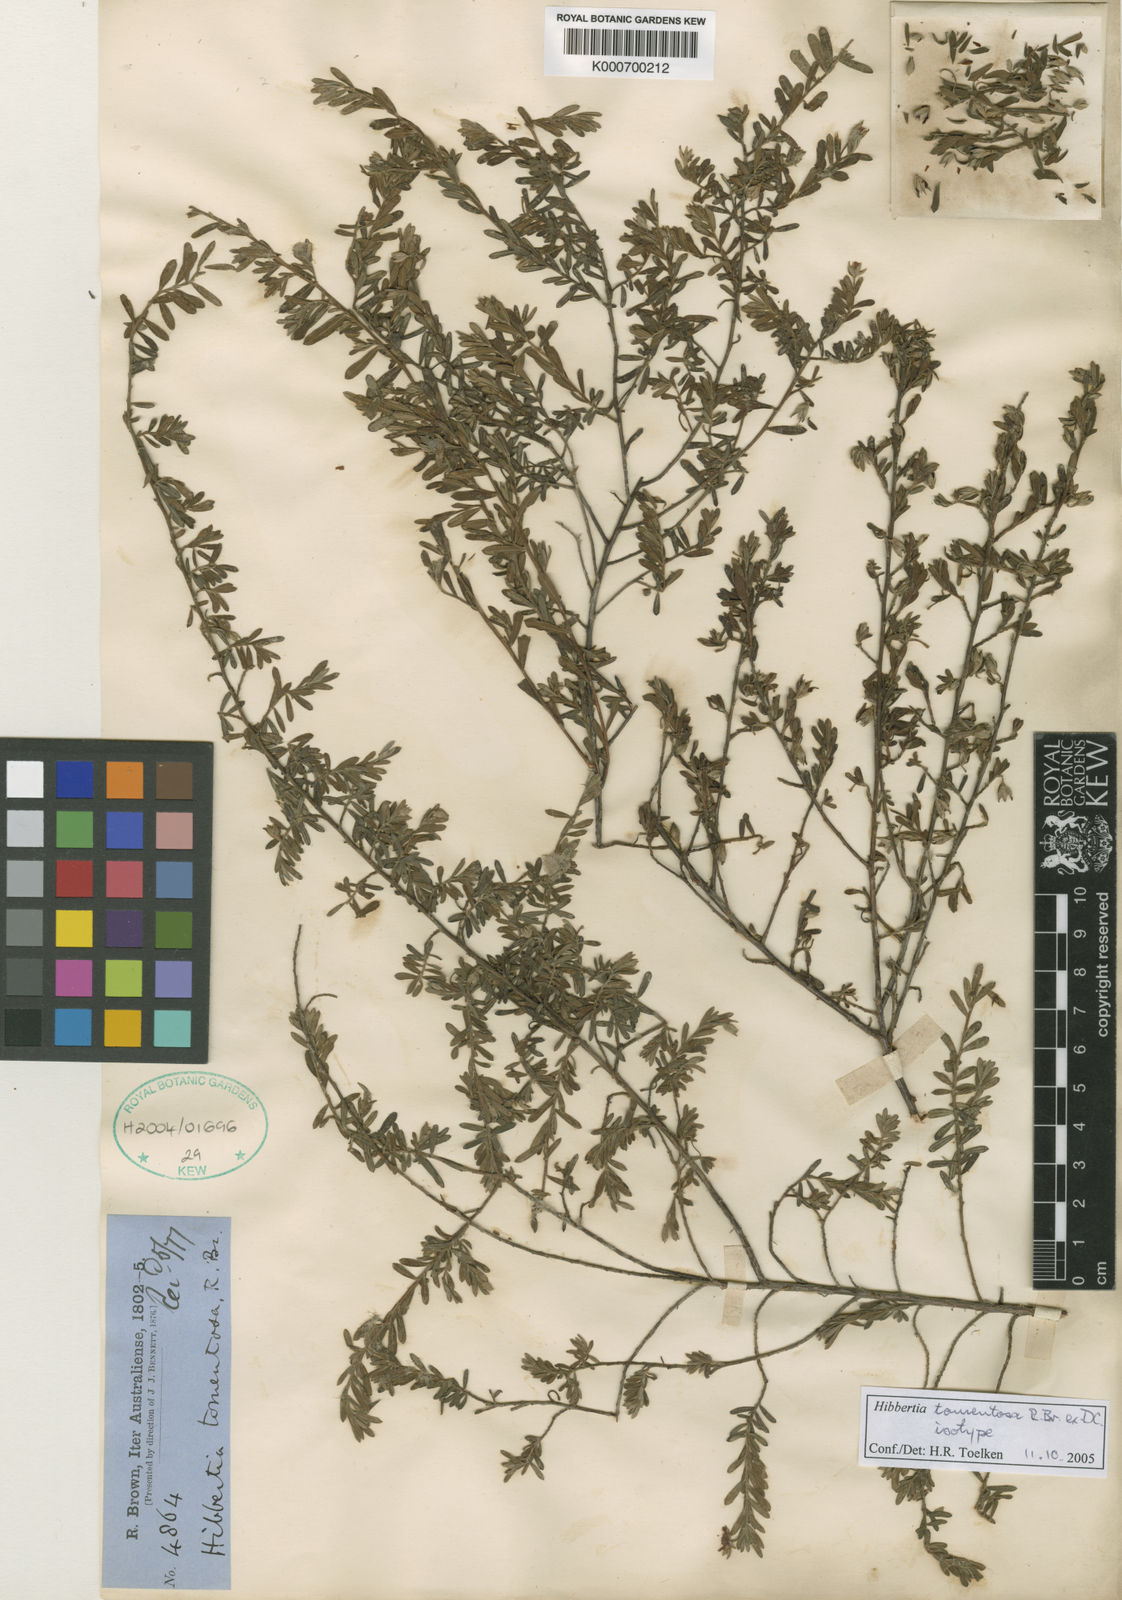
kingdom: Plantae
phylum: Tracheophyta
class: Magnoliopsida
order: Dilleniales
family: Dilleniaceae
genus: Hibbertia
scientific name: Hibbertia tomentosa
